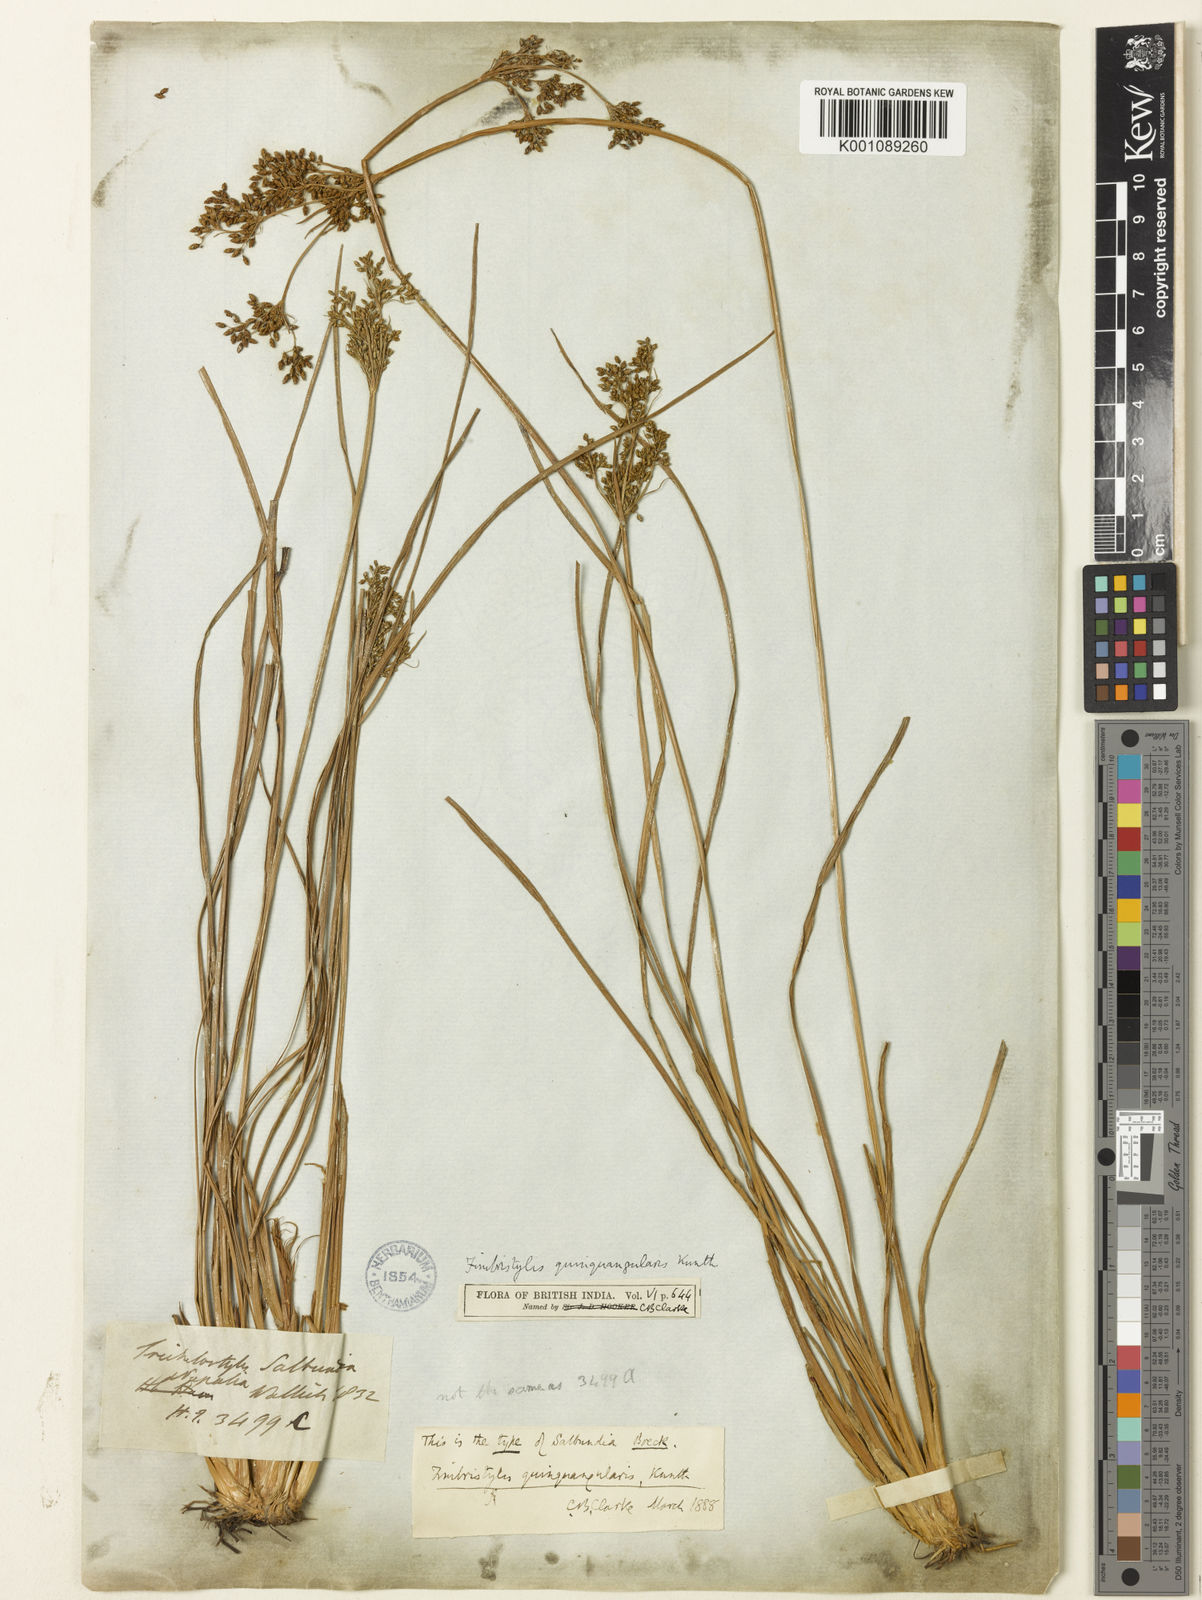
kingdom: Plantae
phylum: Tracheophyta
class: Liliopsida
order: Poales
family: Cyperaceae
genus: Fimbristylis
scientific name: Fimbristylis quinquangularis
